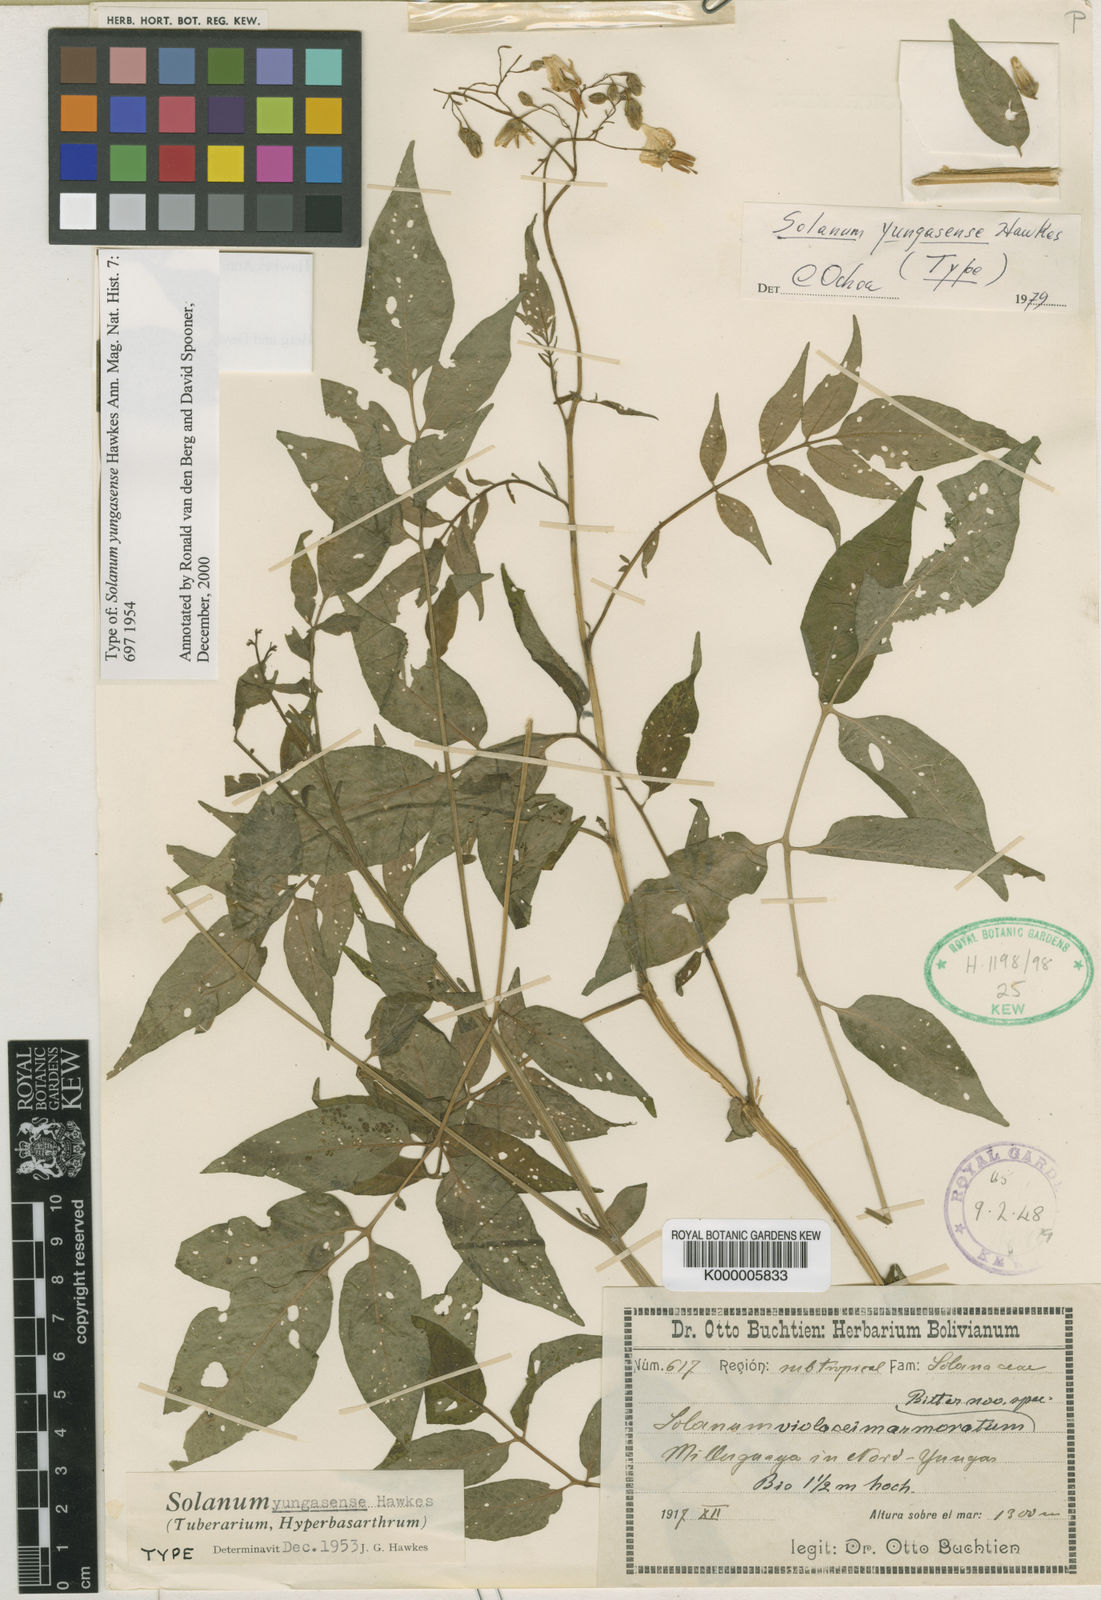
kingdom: Plantae
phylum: Tracheophyta
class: Magnoliopsida
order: Solanales
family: Solanaceae
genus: Solanum
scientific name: Solanum chacoense
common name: Chaco potato
